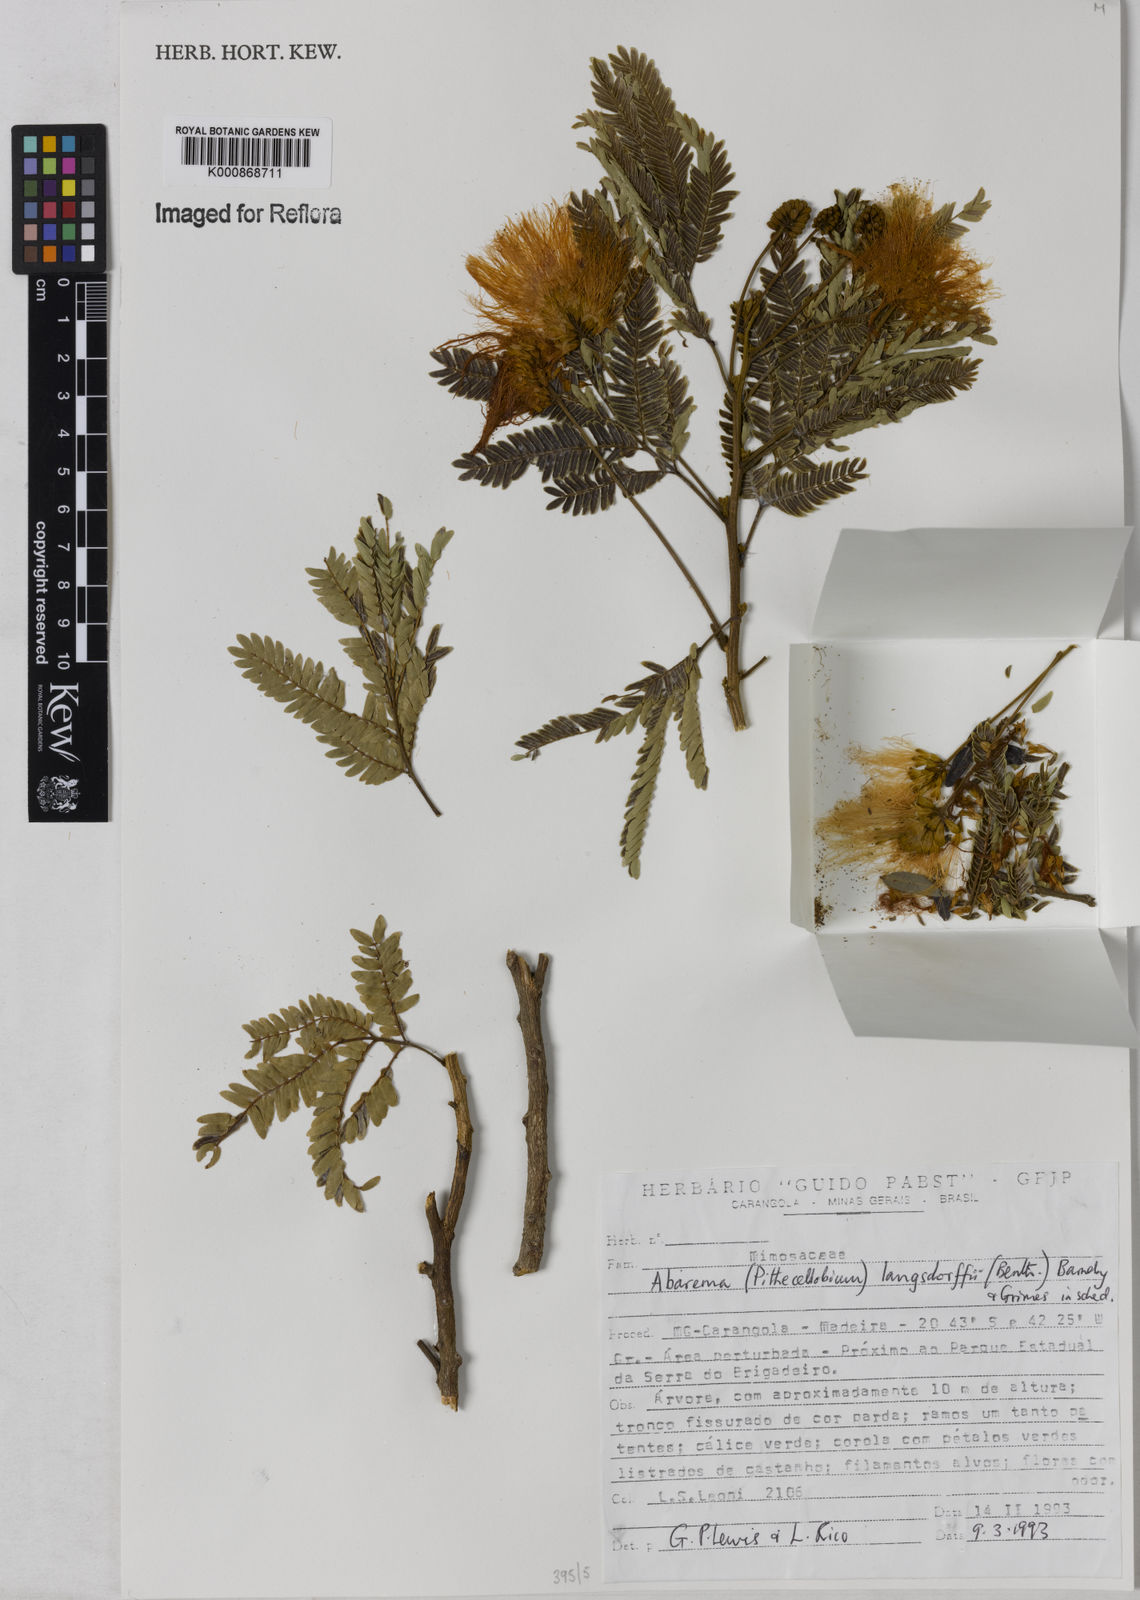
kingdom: Plantae
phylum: Tracheophyta
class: Magnoliopsida
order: Fabales
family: Fabaceae
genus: Jupunba
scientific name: Jupunba langsdorffii
